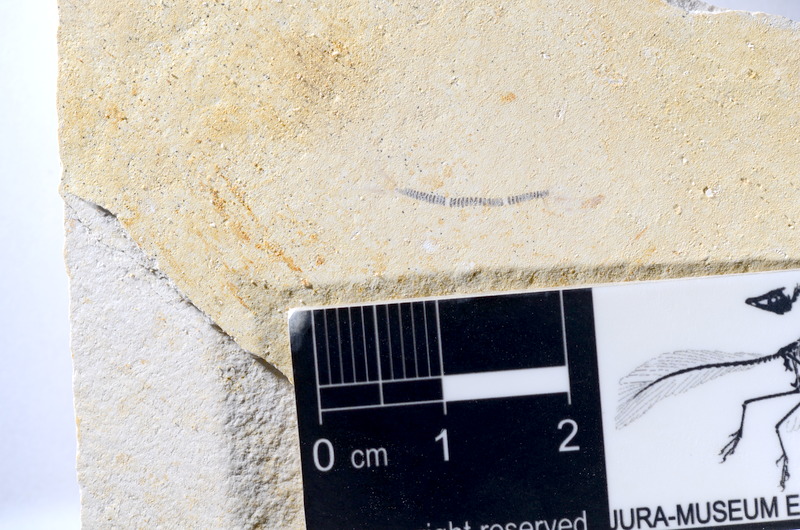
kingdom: Animalia
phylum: Chordata
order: Salmoniformes
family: Orthogonikleithridae
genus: Orthogonikleithrus
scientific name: Orthogonikleithrus hoelli
